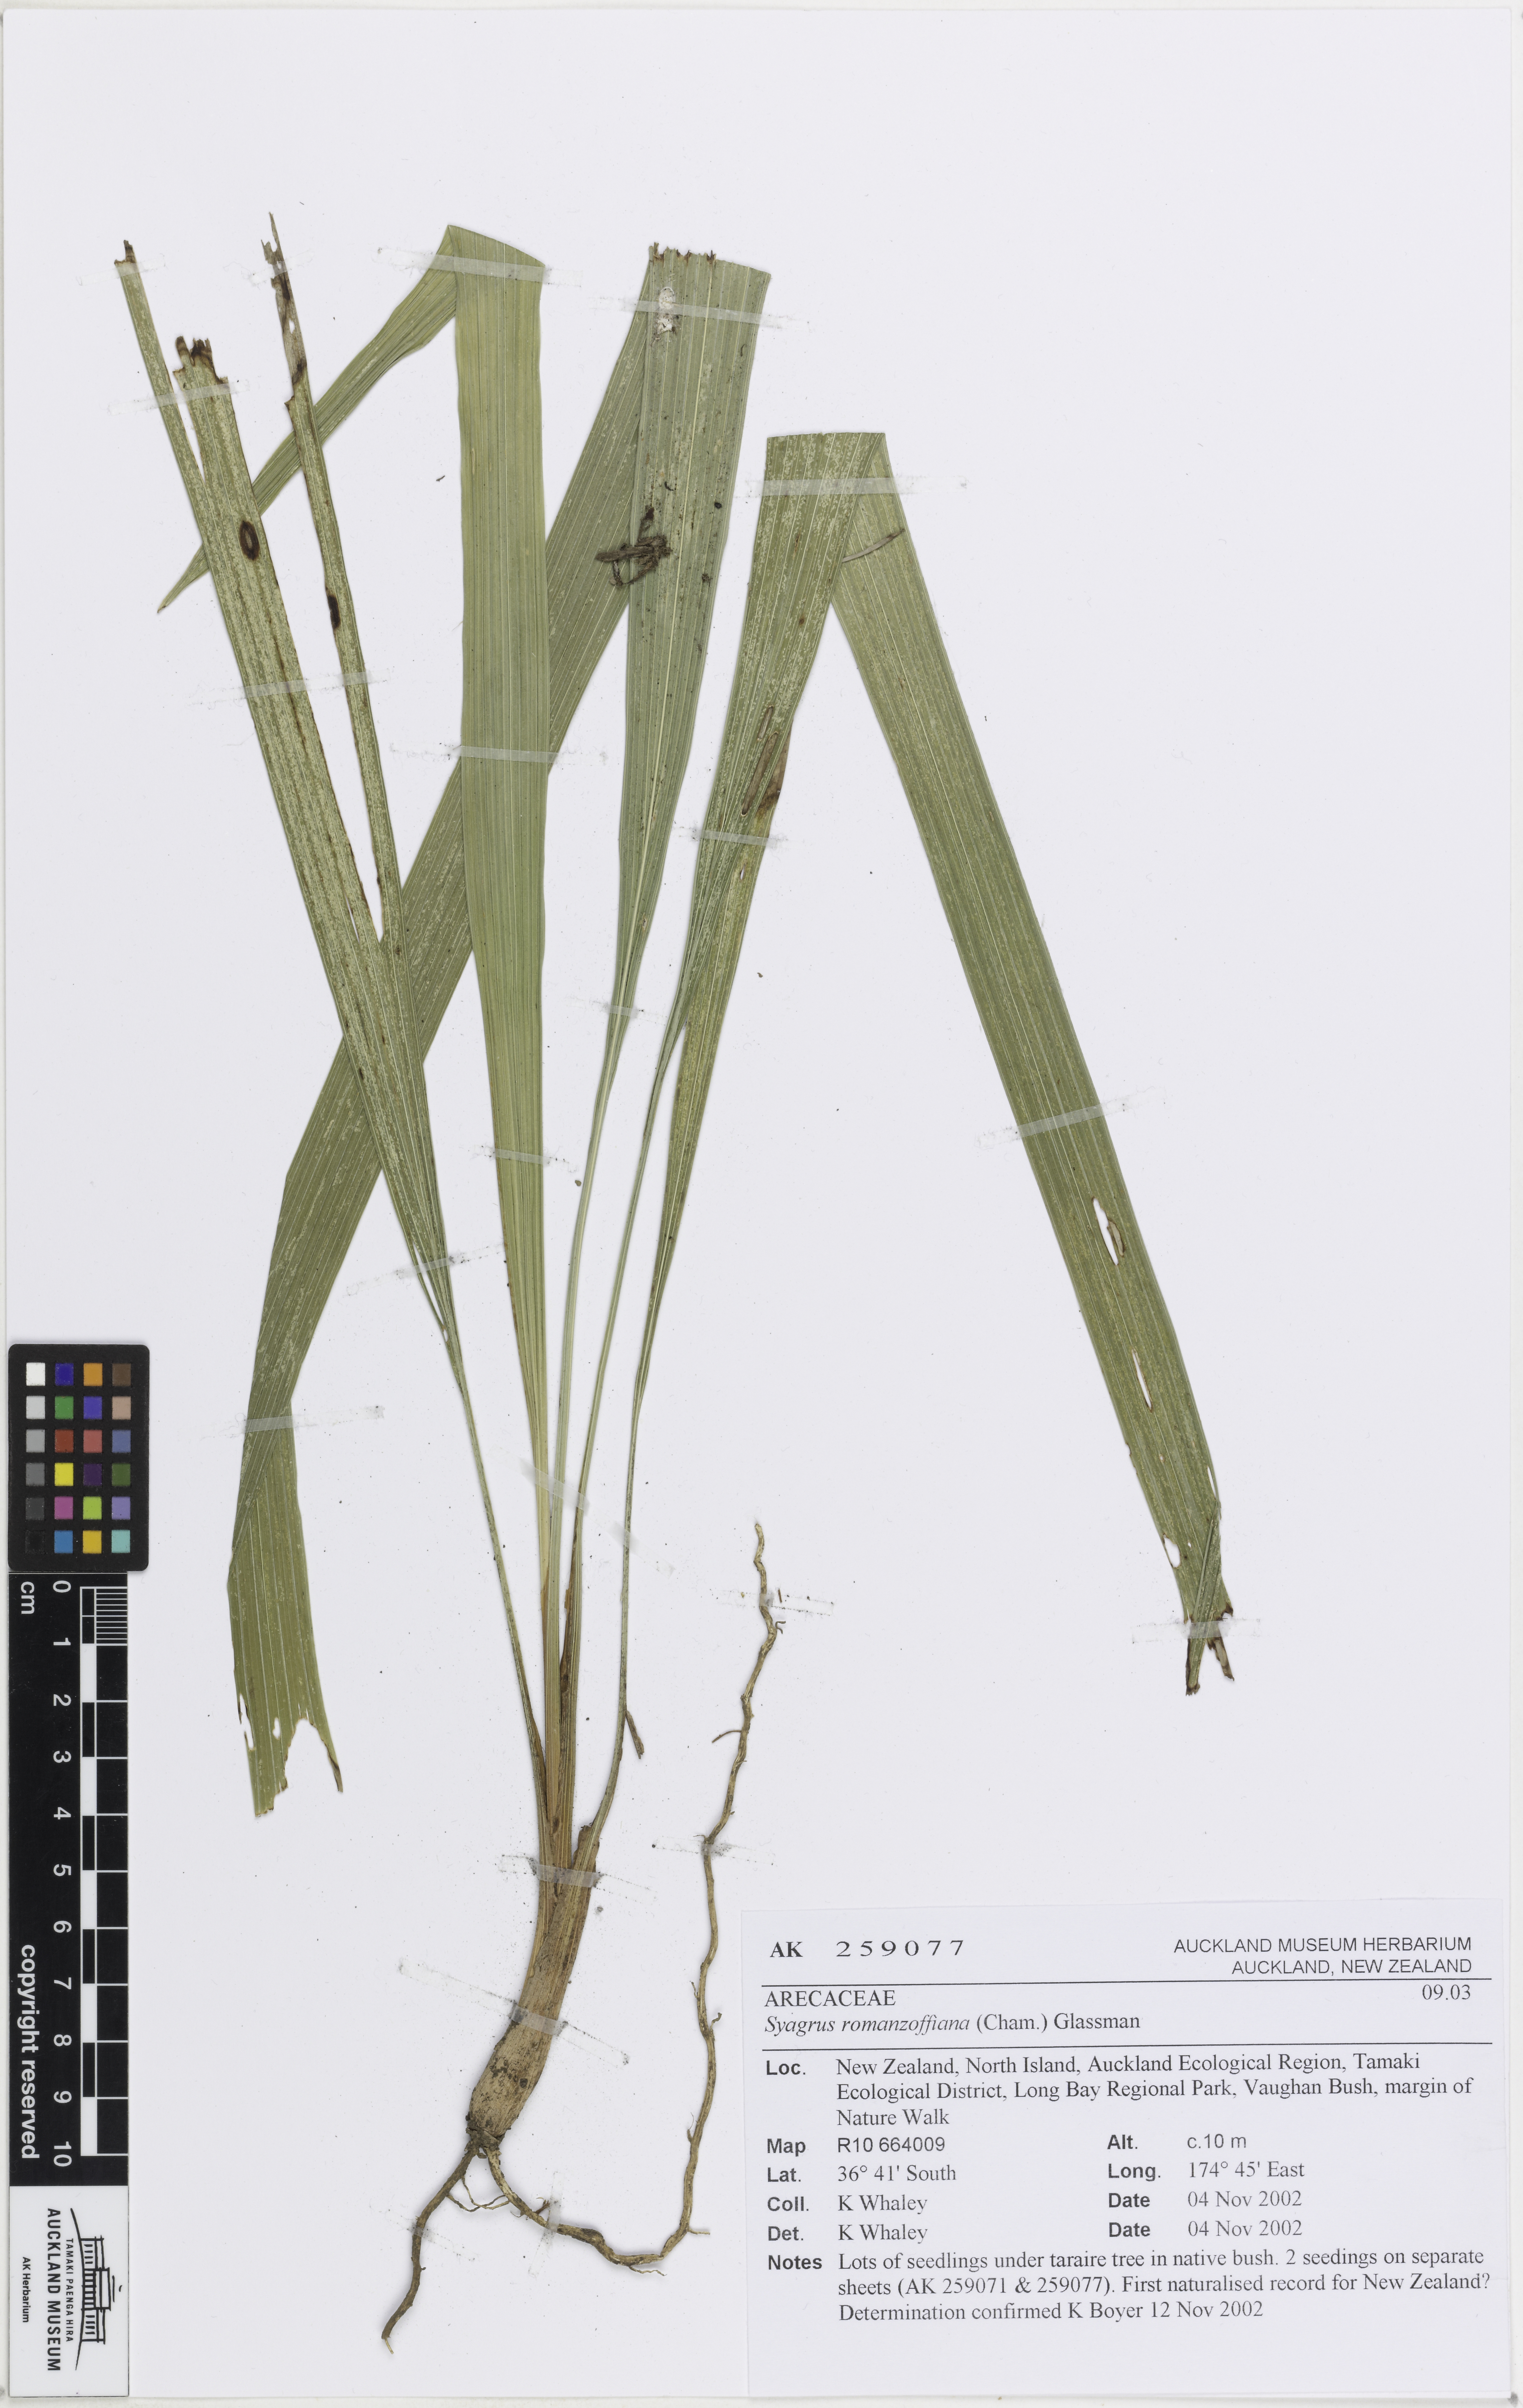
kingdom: Plantae
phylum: Tracheophyta
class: Liliopsida
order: Arecales
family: Arecaceae
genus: Syagrus
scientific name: Syagrus romanzoffiana
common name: Queen palm
